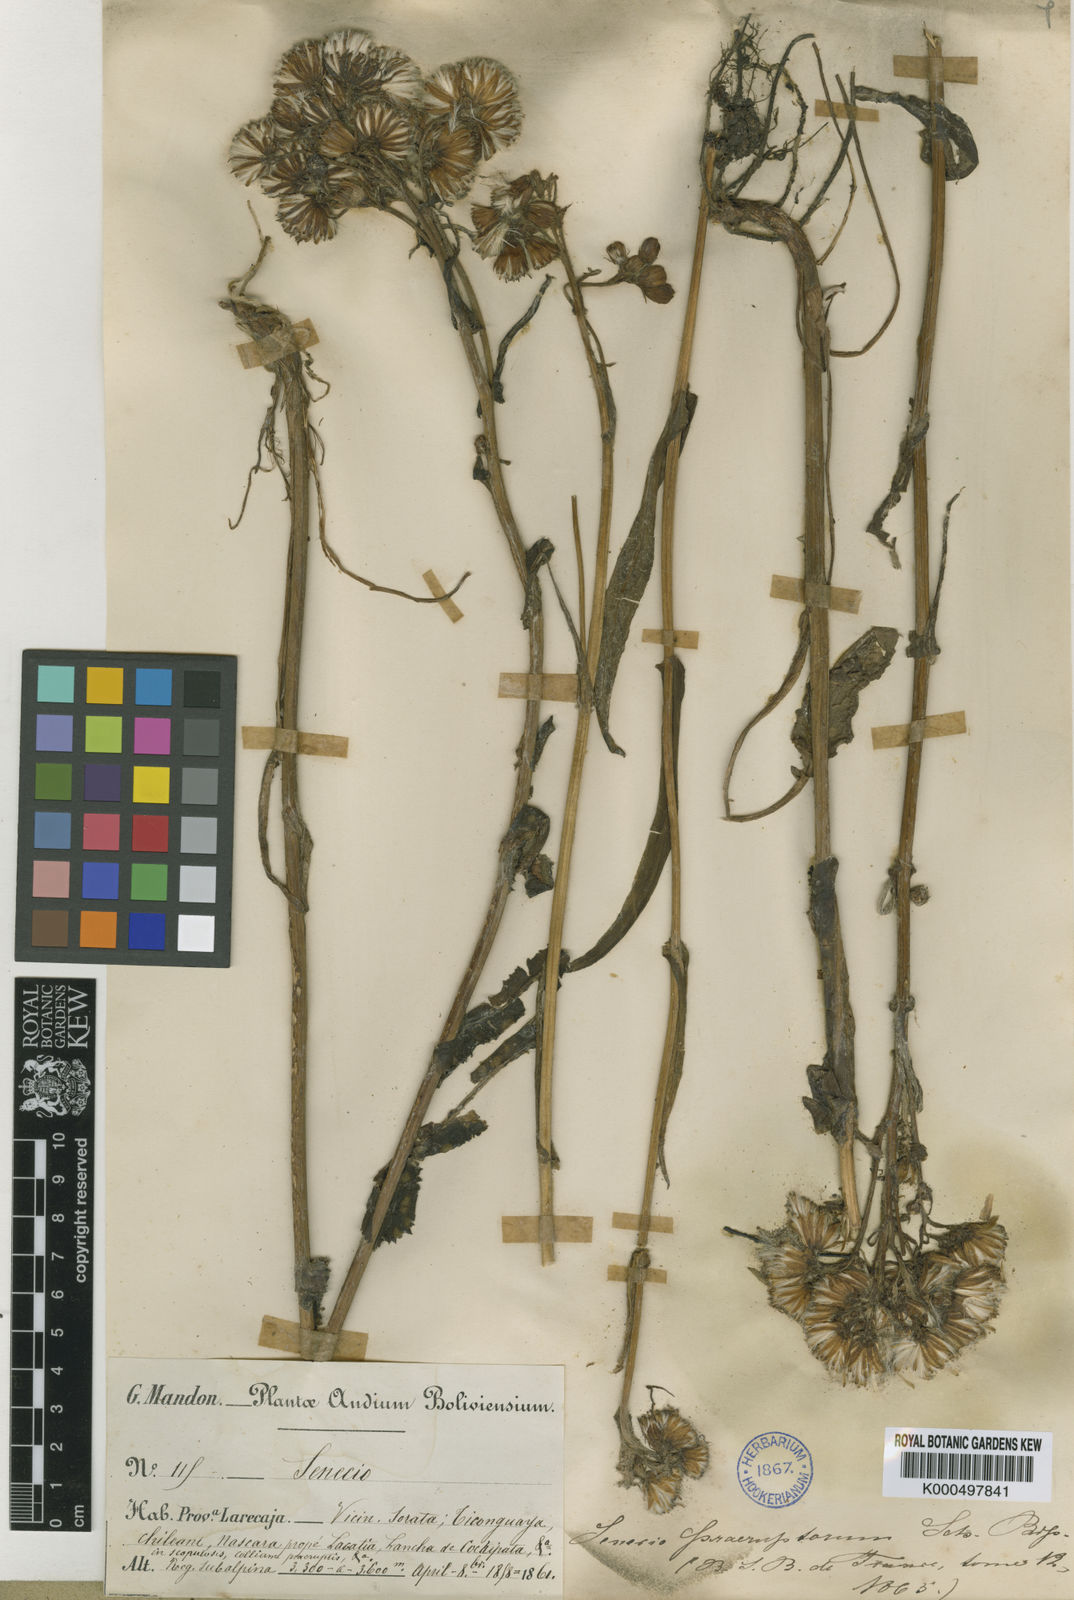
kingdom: Plantae
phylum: Tracheophyta
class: Magnoliopsida
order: Asterales
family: Asteraceae
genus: Senecio
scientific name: Senecio praeruptorum
